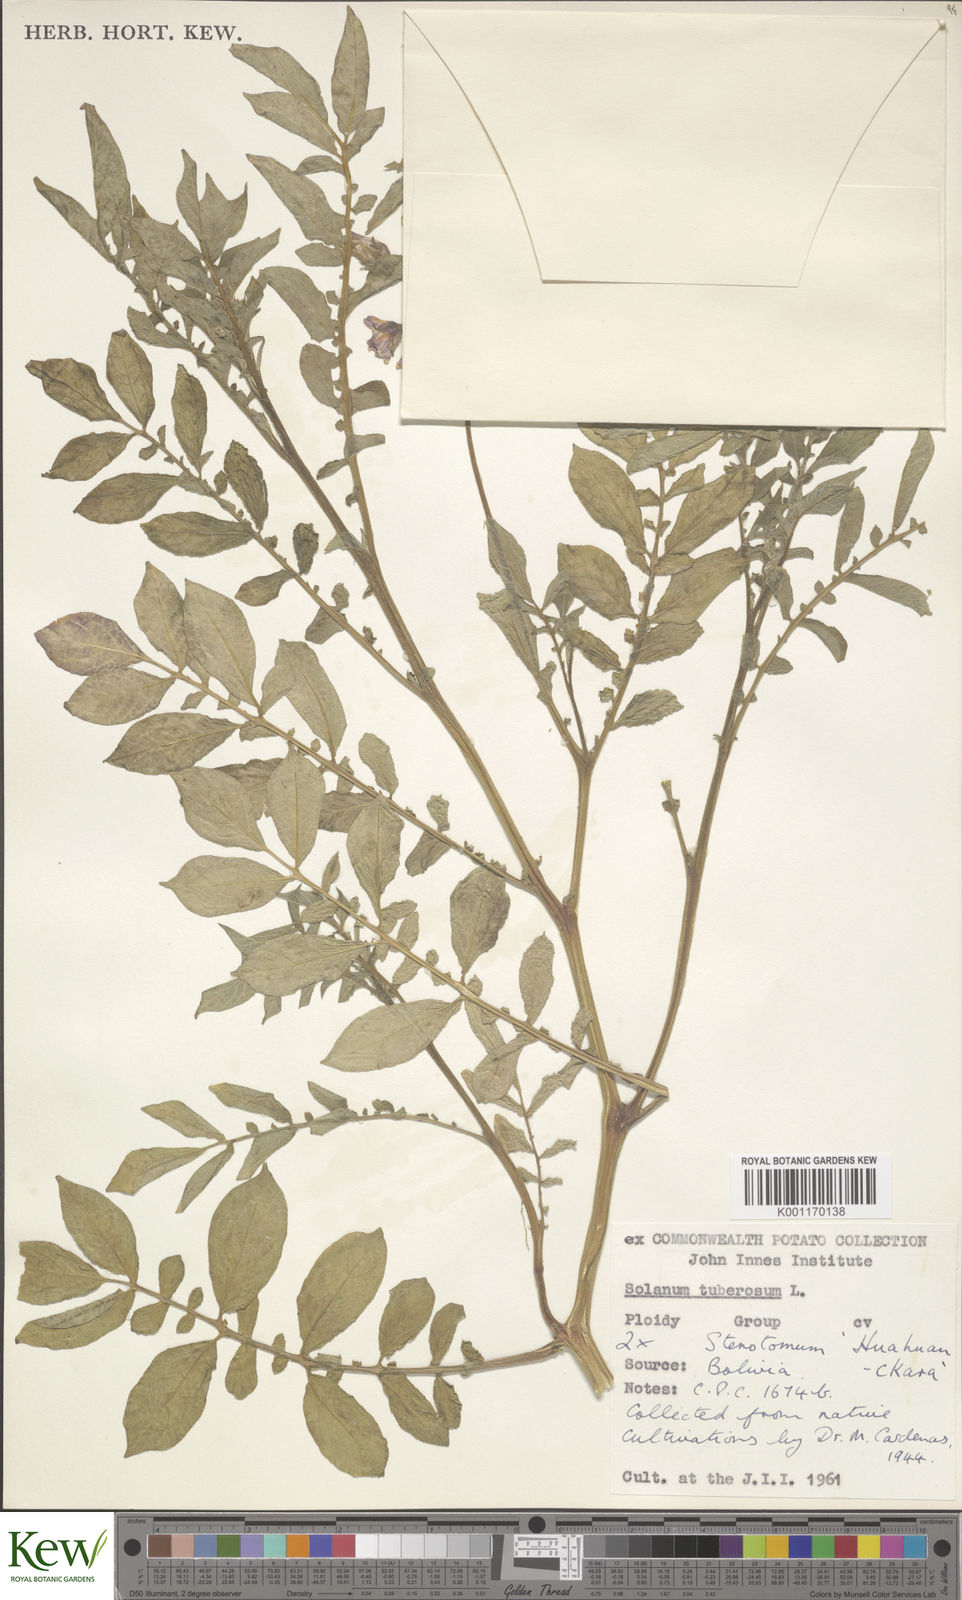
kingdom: Plantae
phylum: Tracheophyta
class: Magnoliopsida
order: Solanales
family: Solanaceae
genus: Solanum
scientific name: Solanum tuberosum
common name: Potato
